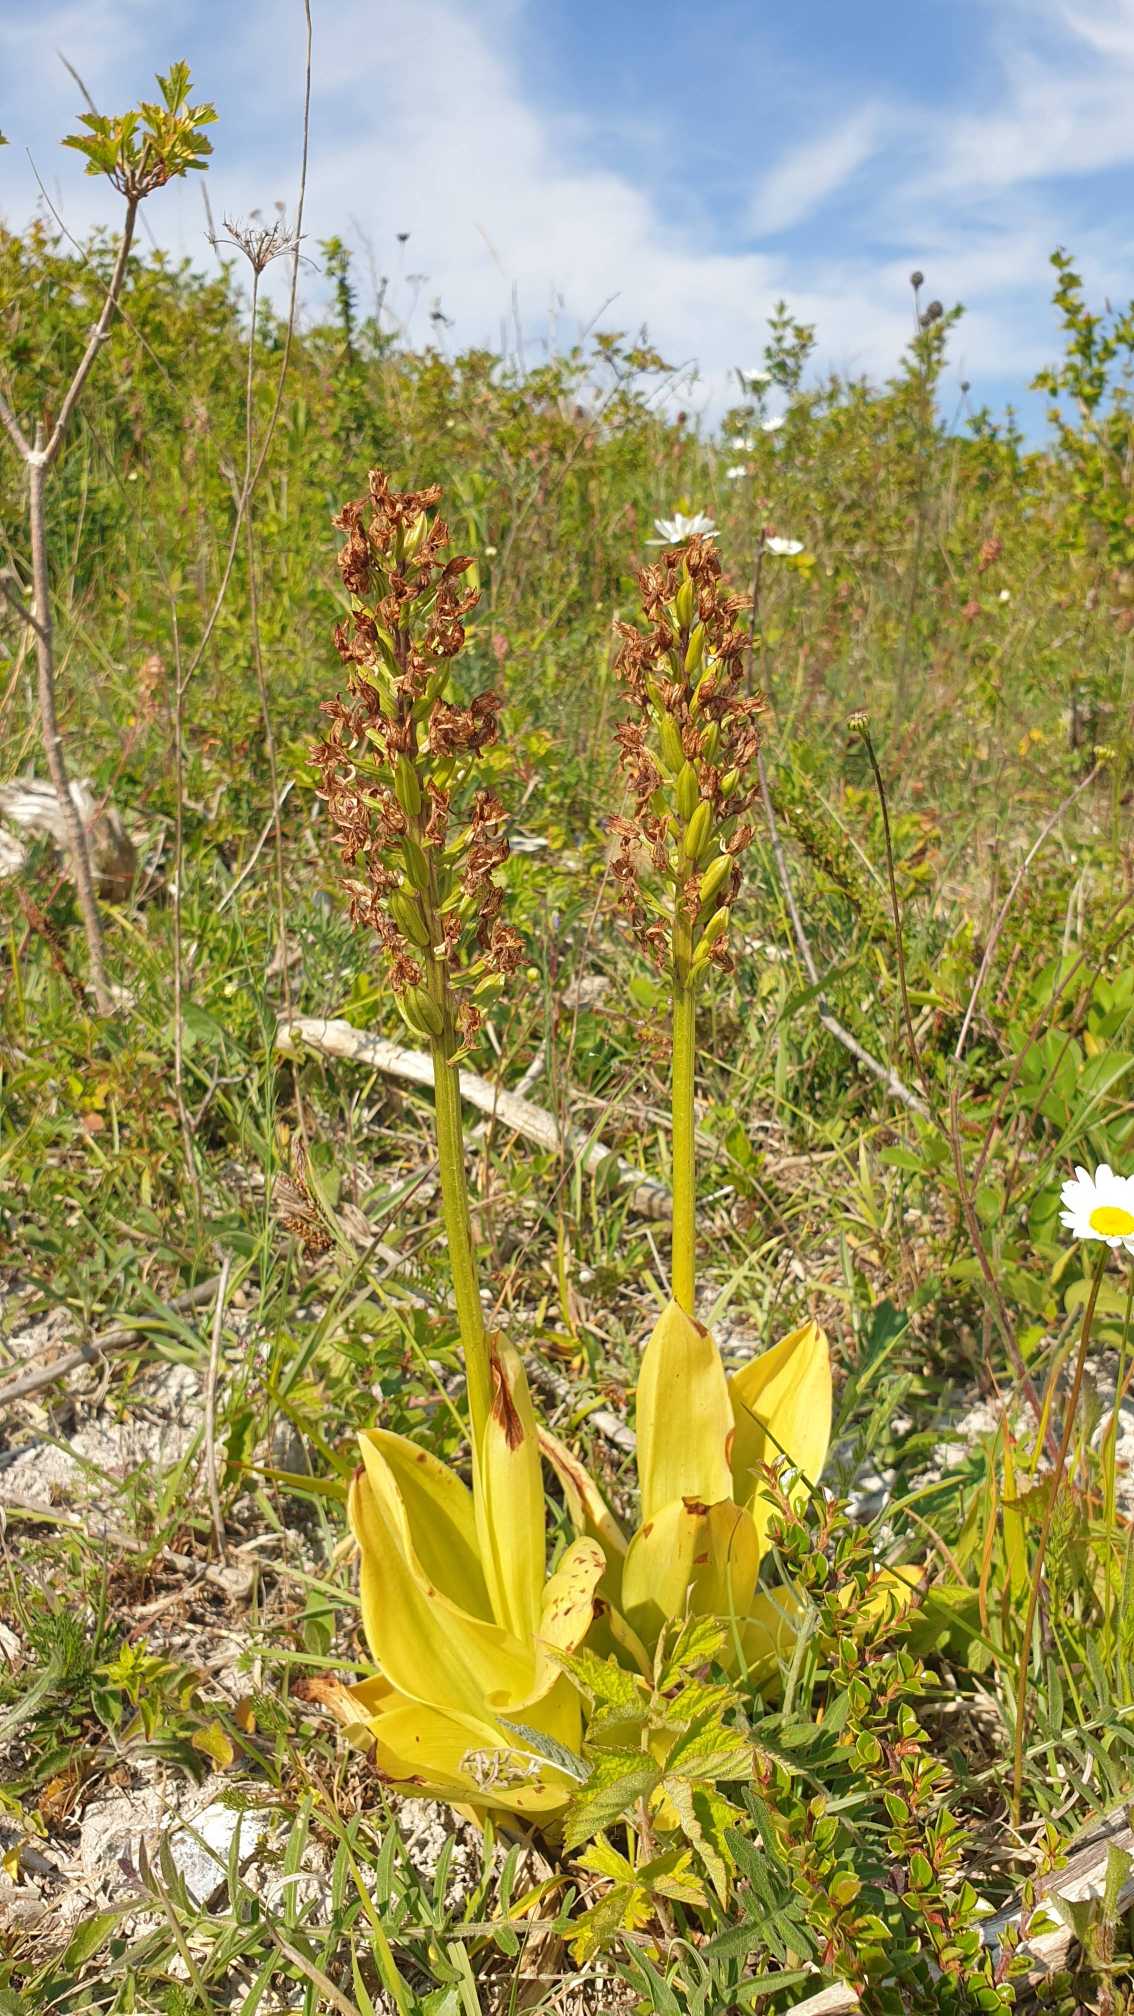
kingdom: Plantae
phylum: Tracheophyta
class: Liliopsida
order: Asparagales
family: Orchidaceae
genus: Orchis
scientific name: Orchis purpurea
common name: Stor gøgeurt
